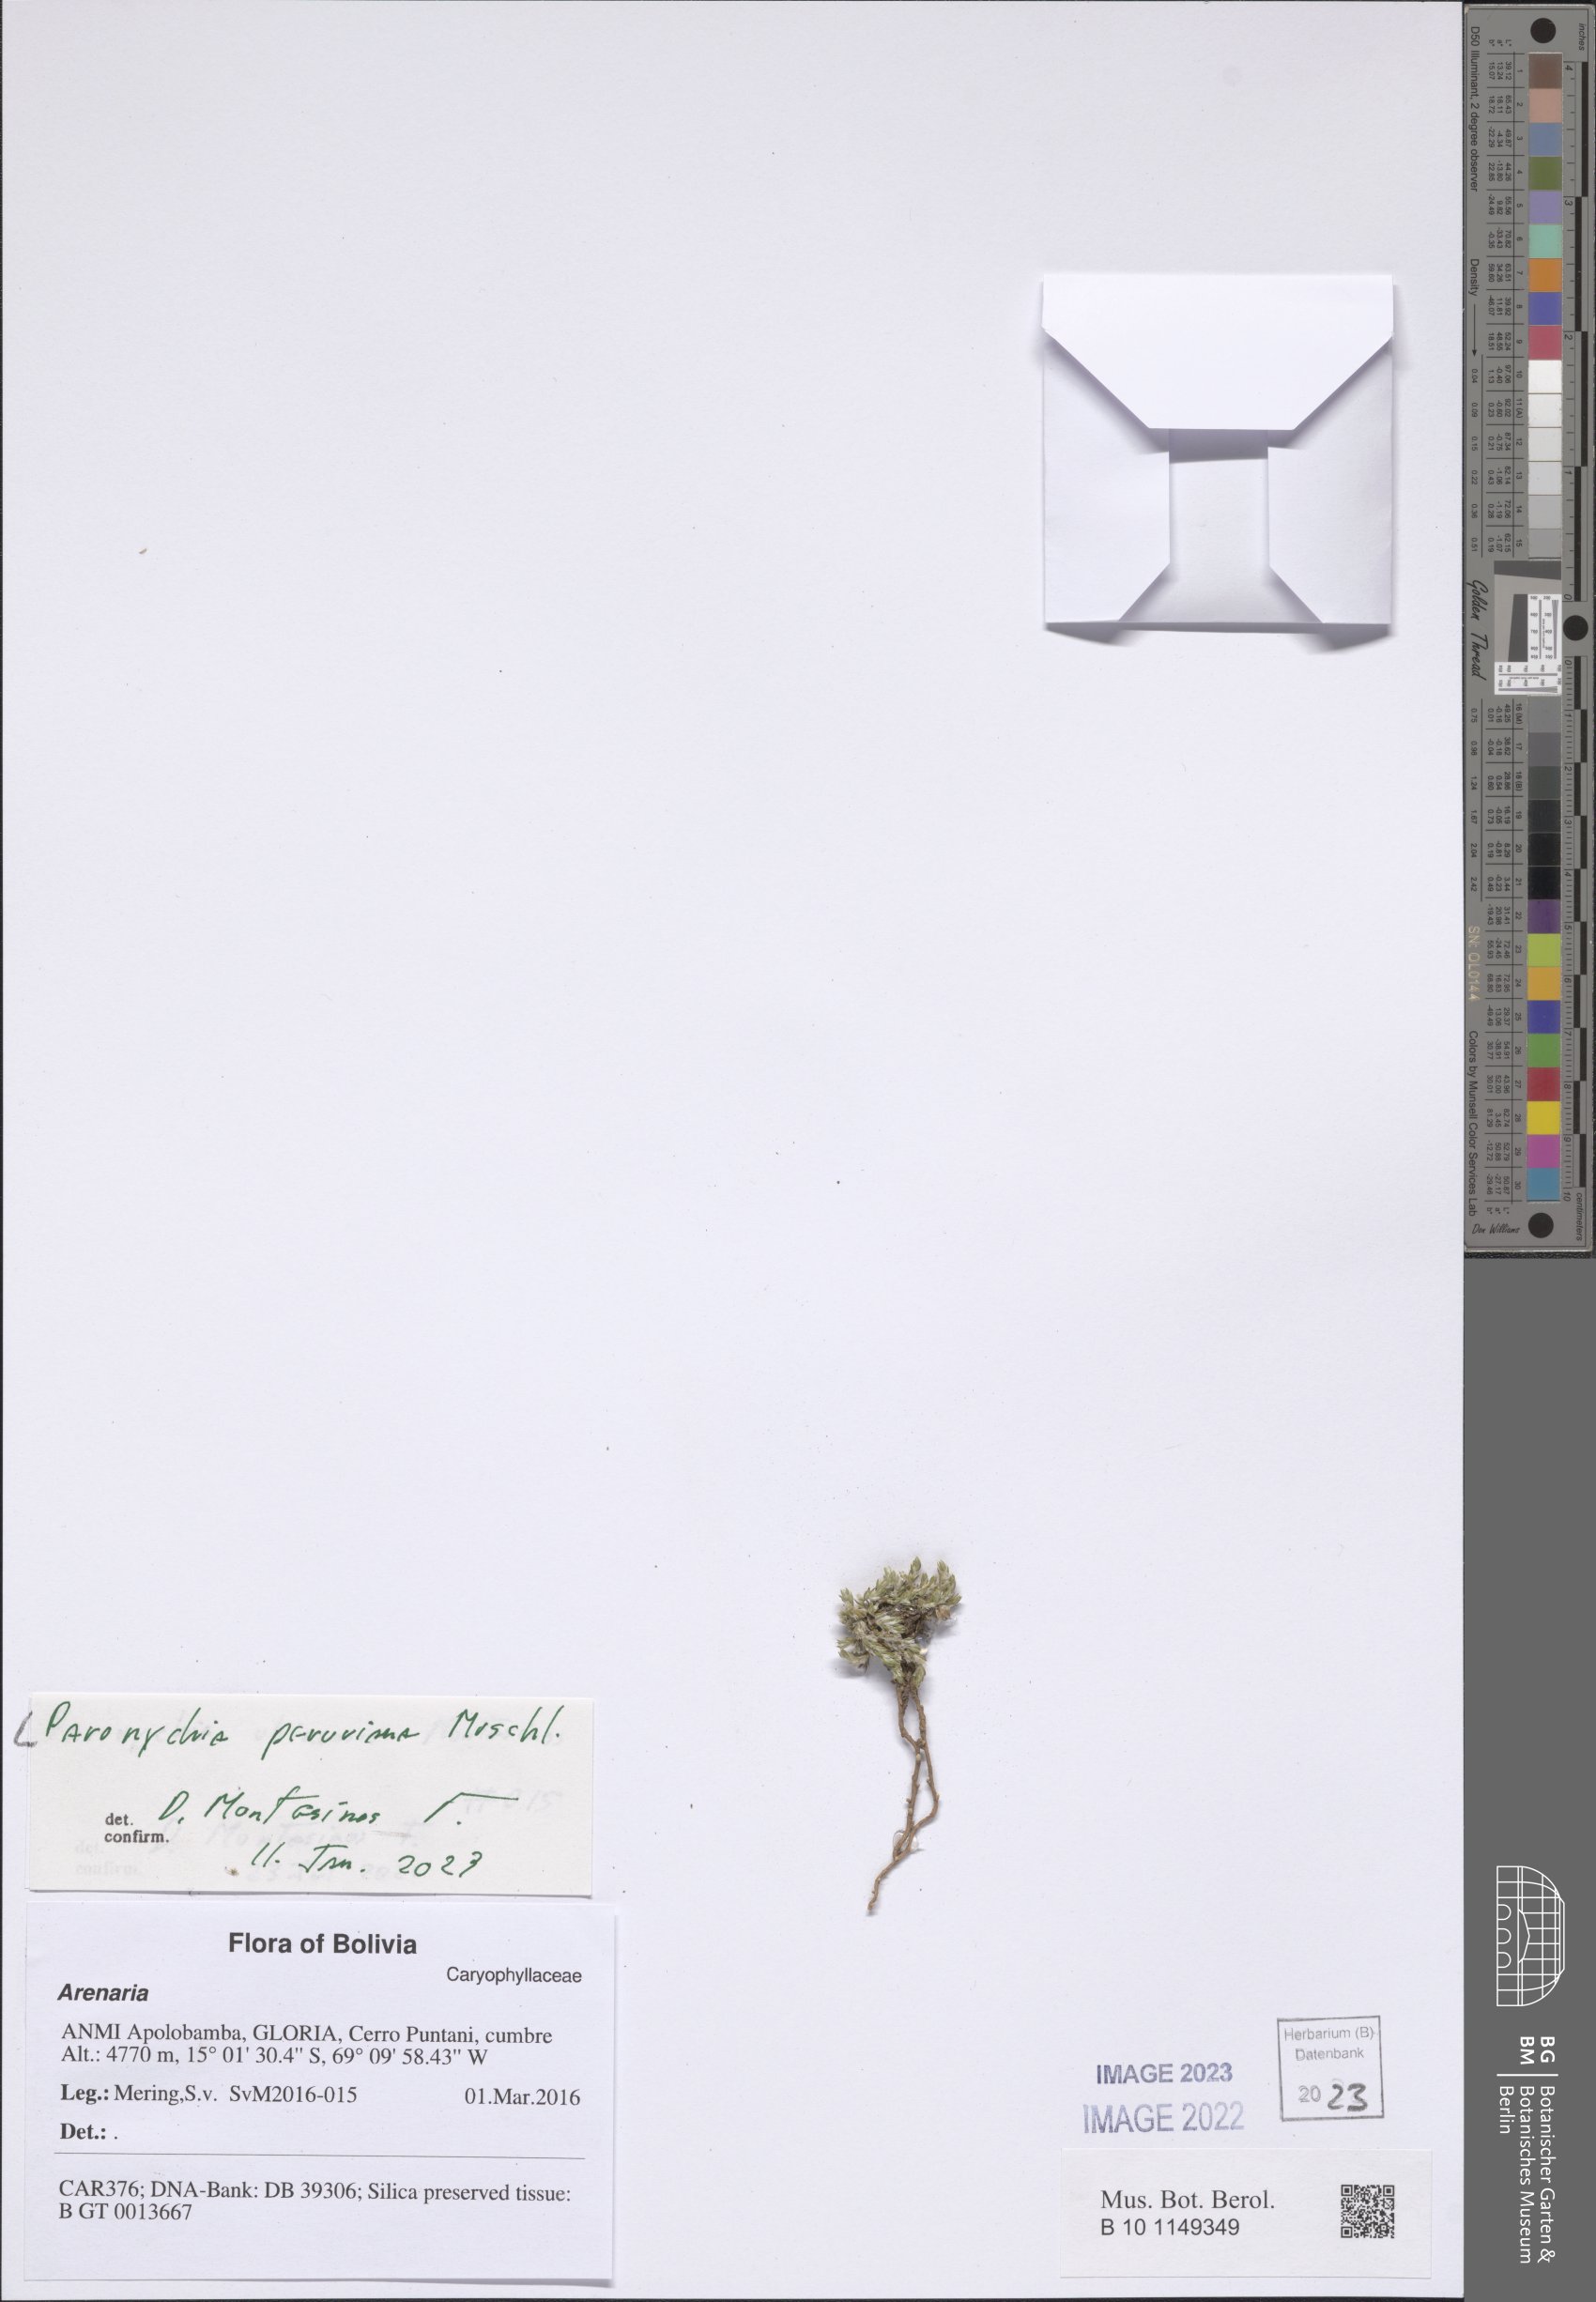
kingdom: Plantae
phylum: Tracheophyta
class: Magnoliopsida
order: Caryophyllales
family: Caryophyllaceae
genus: Paronychia
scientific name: Paronychia peruviana
